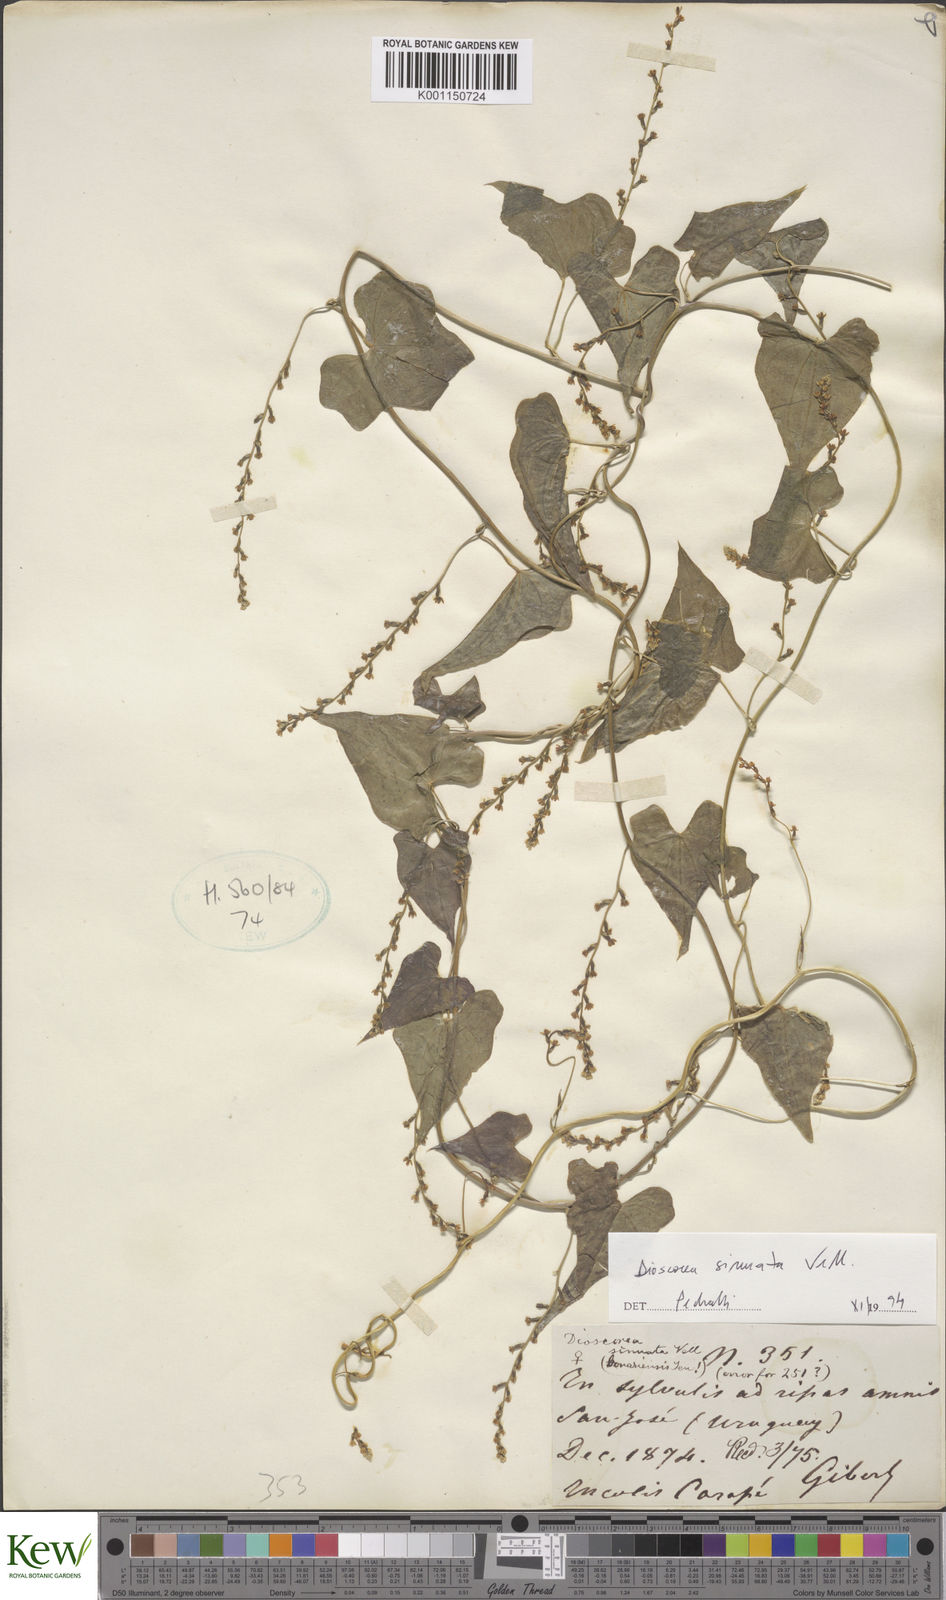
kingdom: Plantae
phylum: Tracheophyta
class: Liliopsida
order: Dioscoreales
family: Dioscoreaceae
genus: Dioscorea
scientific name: Dioscorea sinuata
